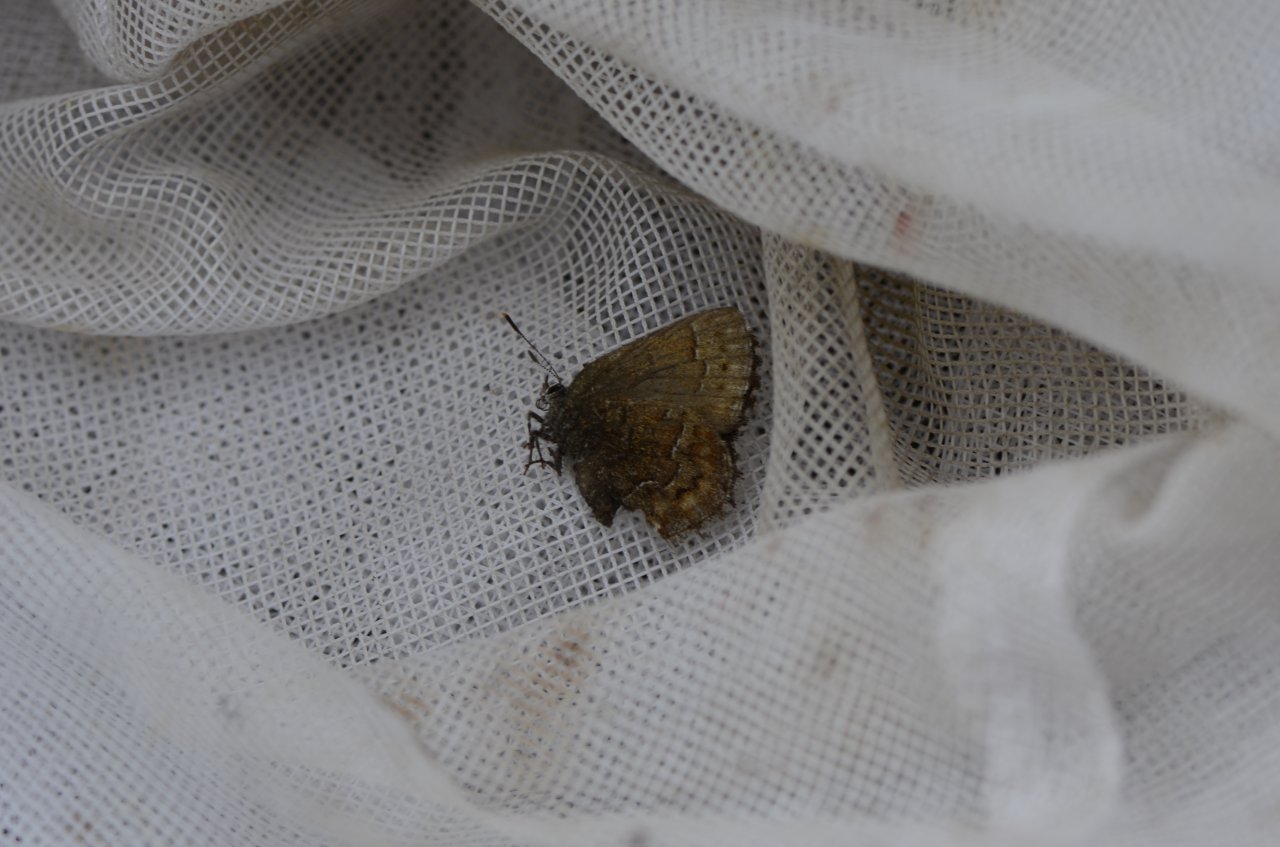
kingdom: Animalia
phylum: Arthropoda
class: Insecta
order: Lepidoptera
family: Lycaenidae
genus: Incisalia
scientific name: Incisalia niphon
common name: Eastern Pine Elfin
